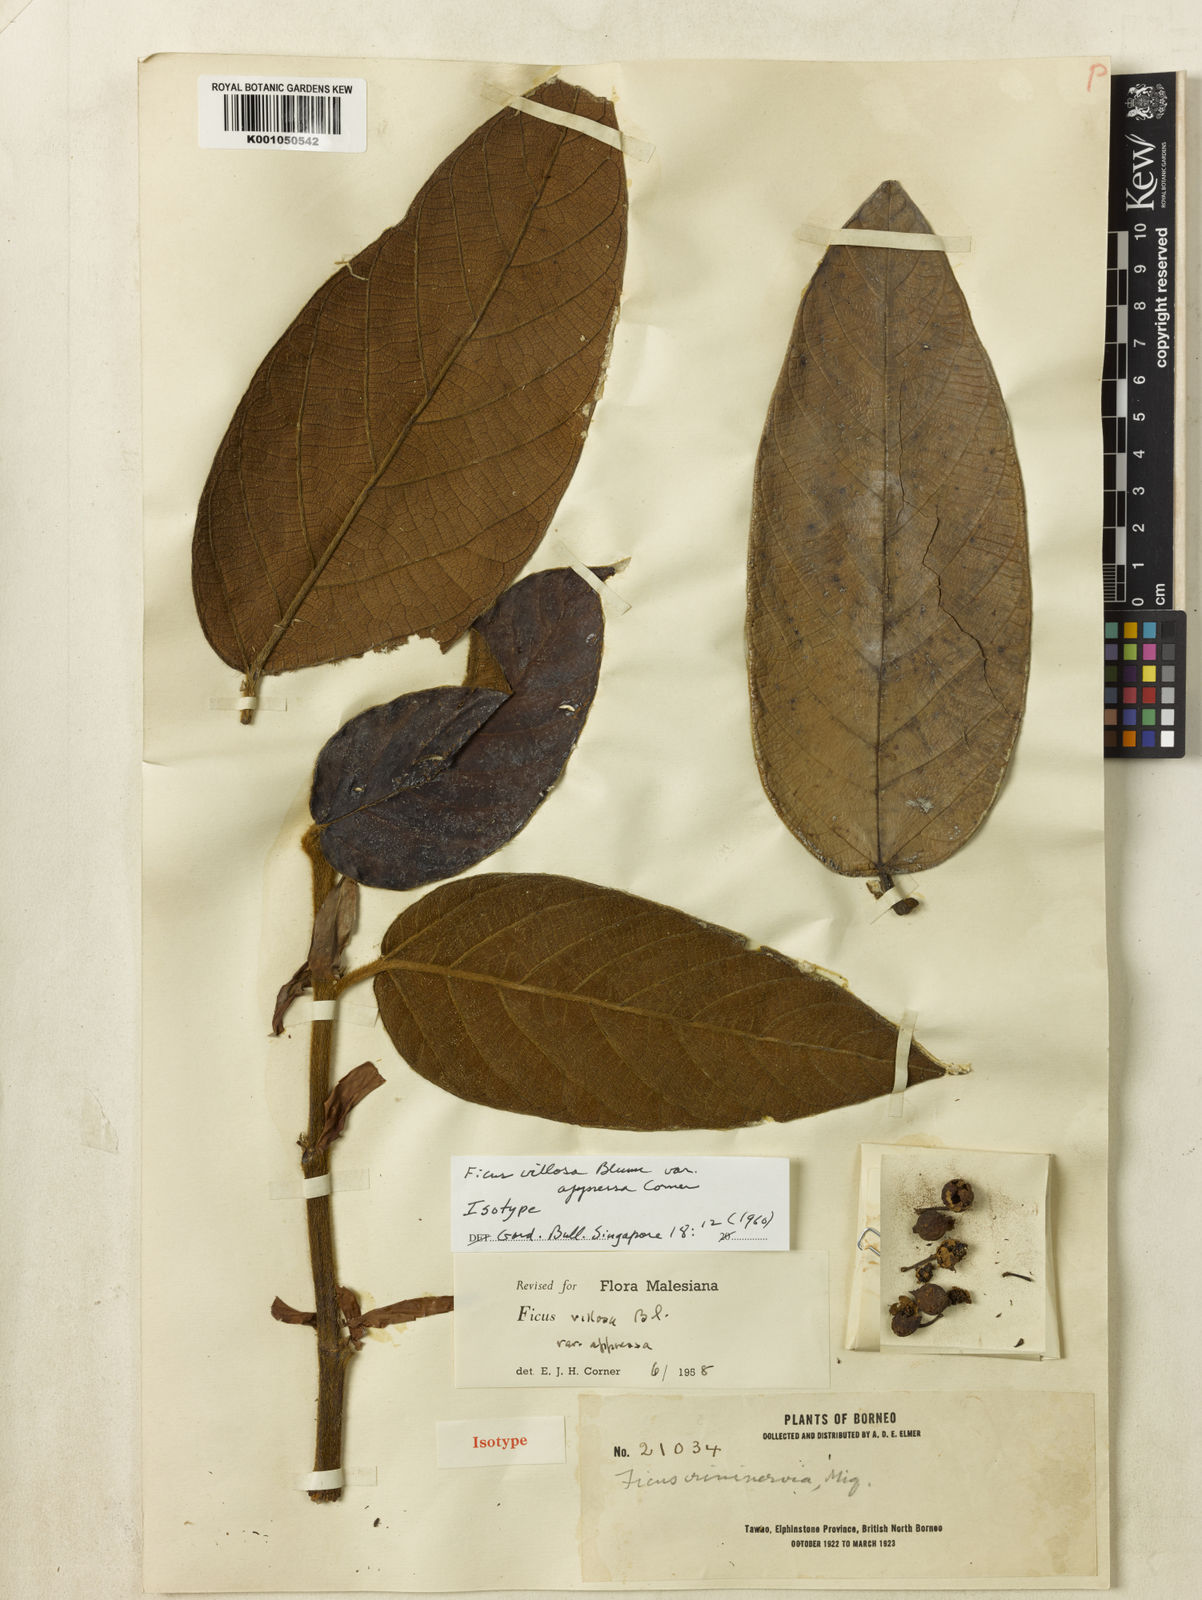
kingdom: Plantae
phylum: Tracheophyta
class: Magnoliopsida
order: Rosales
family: Moraceae
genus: Ficus
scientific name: Ficus villosa
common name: Villous fig
